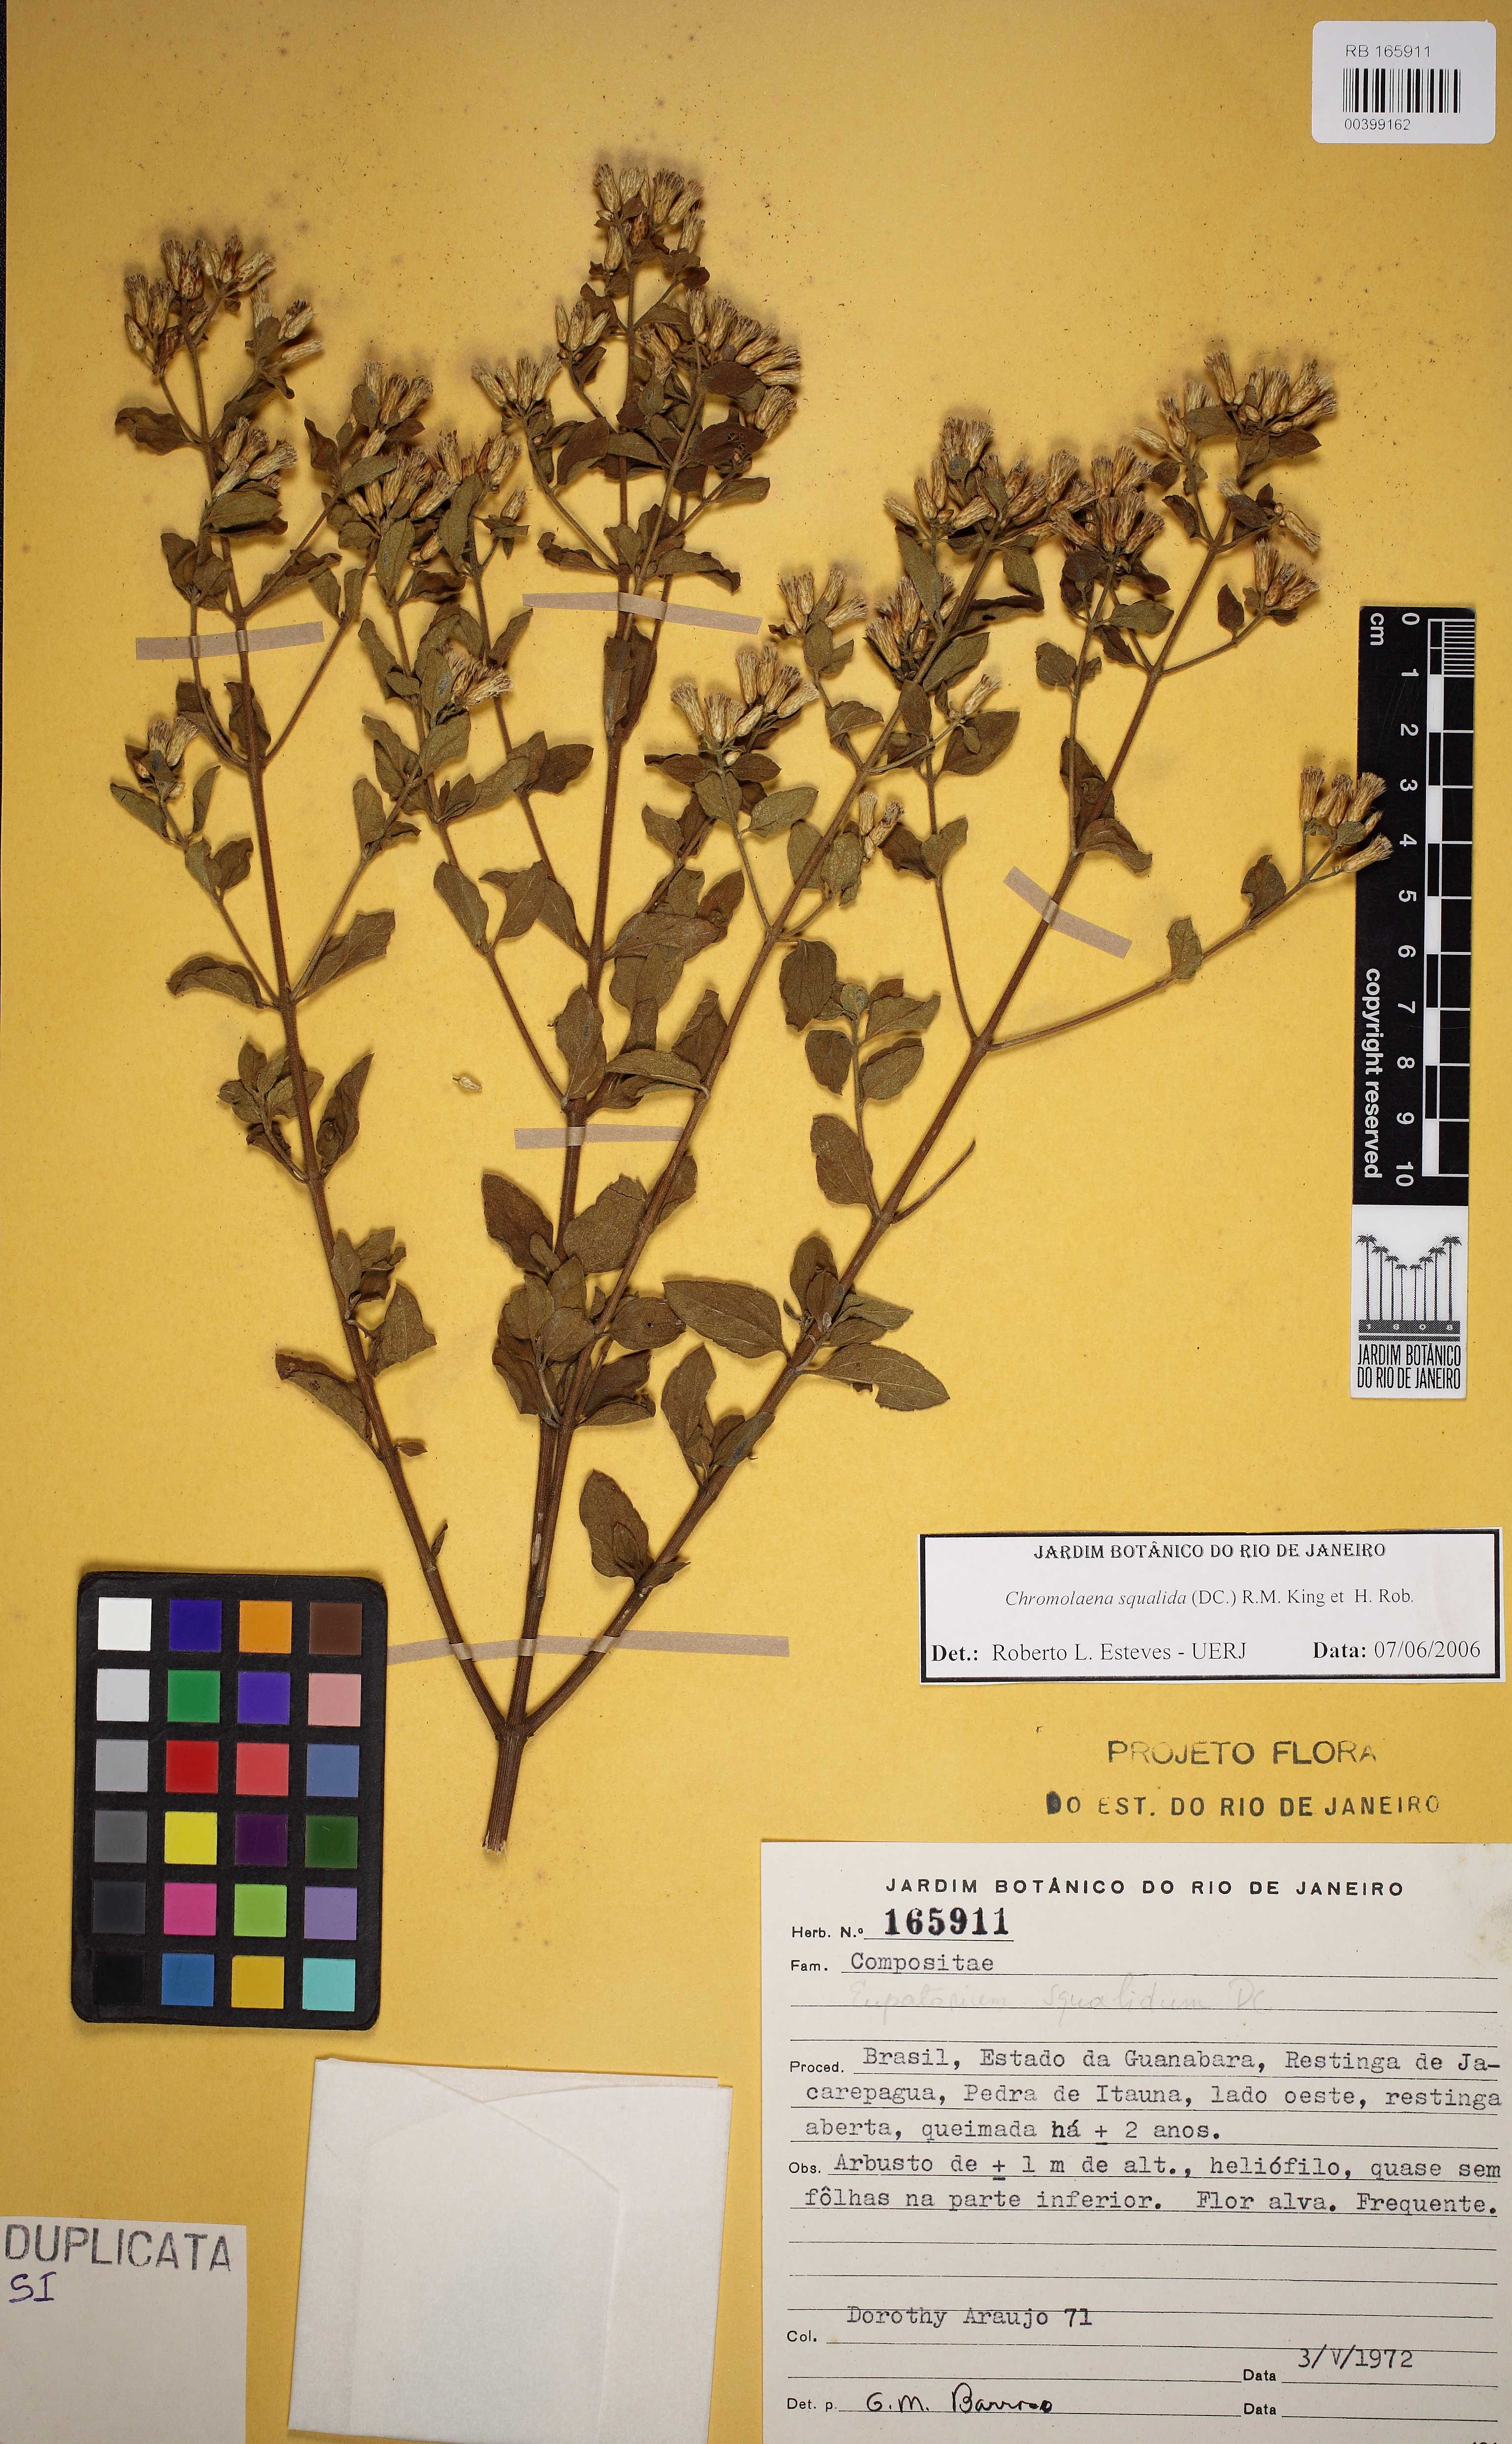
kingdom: Plantae
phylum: Tracheophyta
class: Magnoliopsida
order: Asterales
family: Asteraceae
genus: Chromolaena
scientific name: Chromolaena squalida
